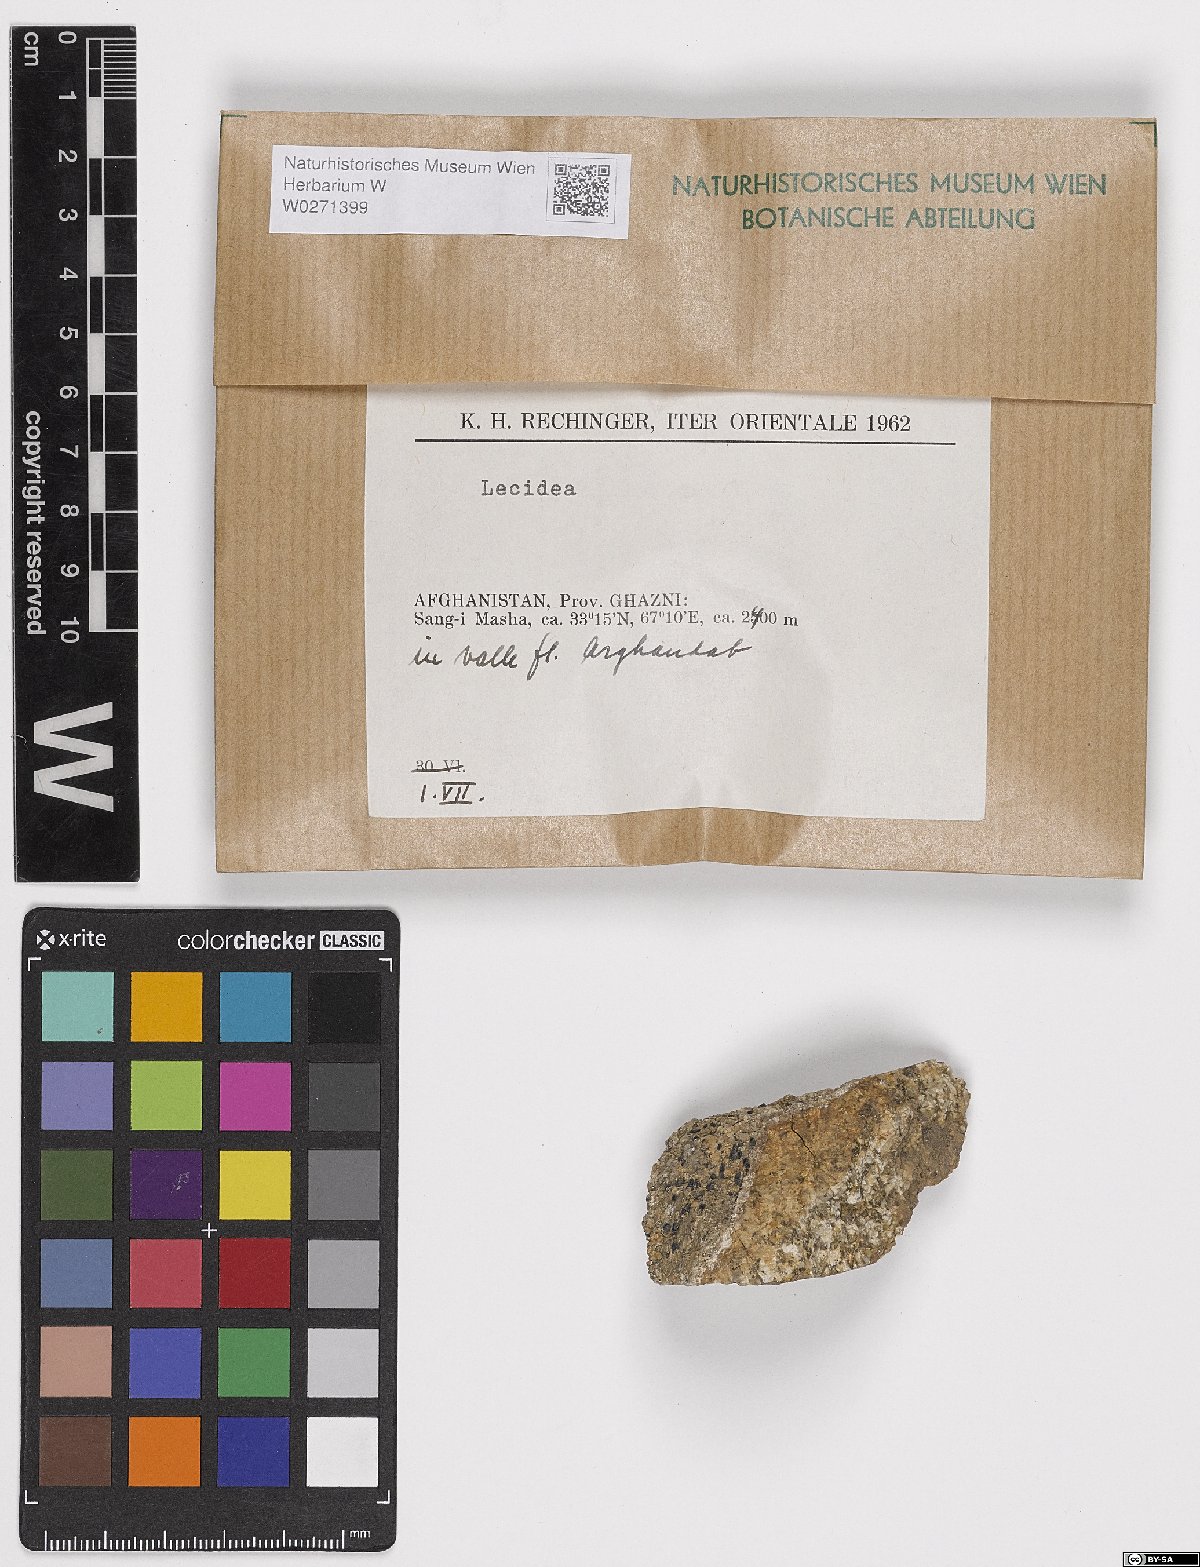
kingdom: Fungi
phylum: Ascomycota
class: Lecanoromycetes
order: Lecideales
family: Lecideaceae
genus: Lecidea
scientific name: Lecidea
